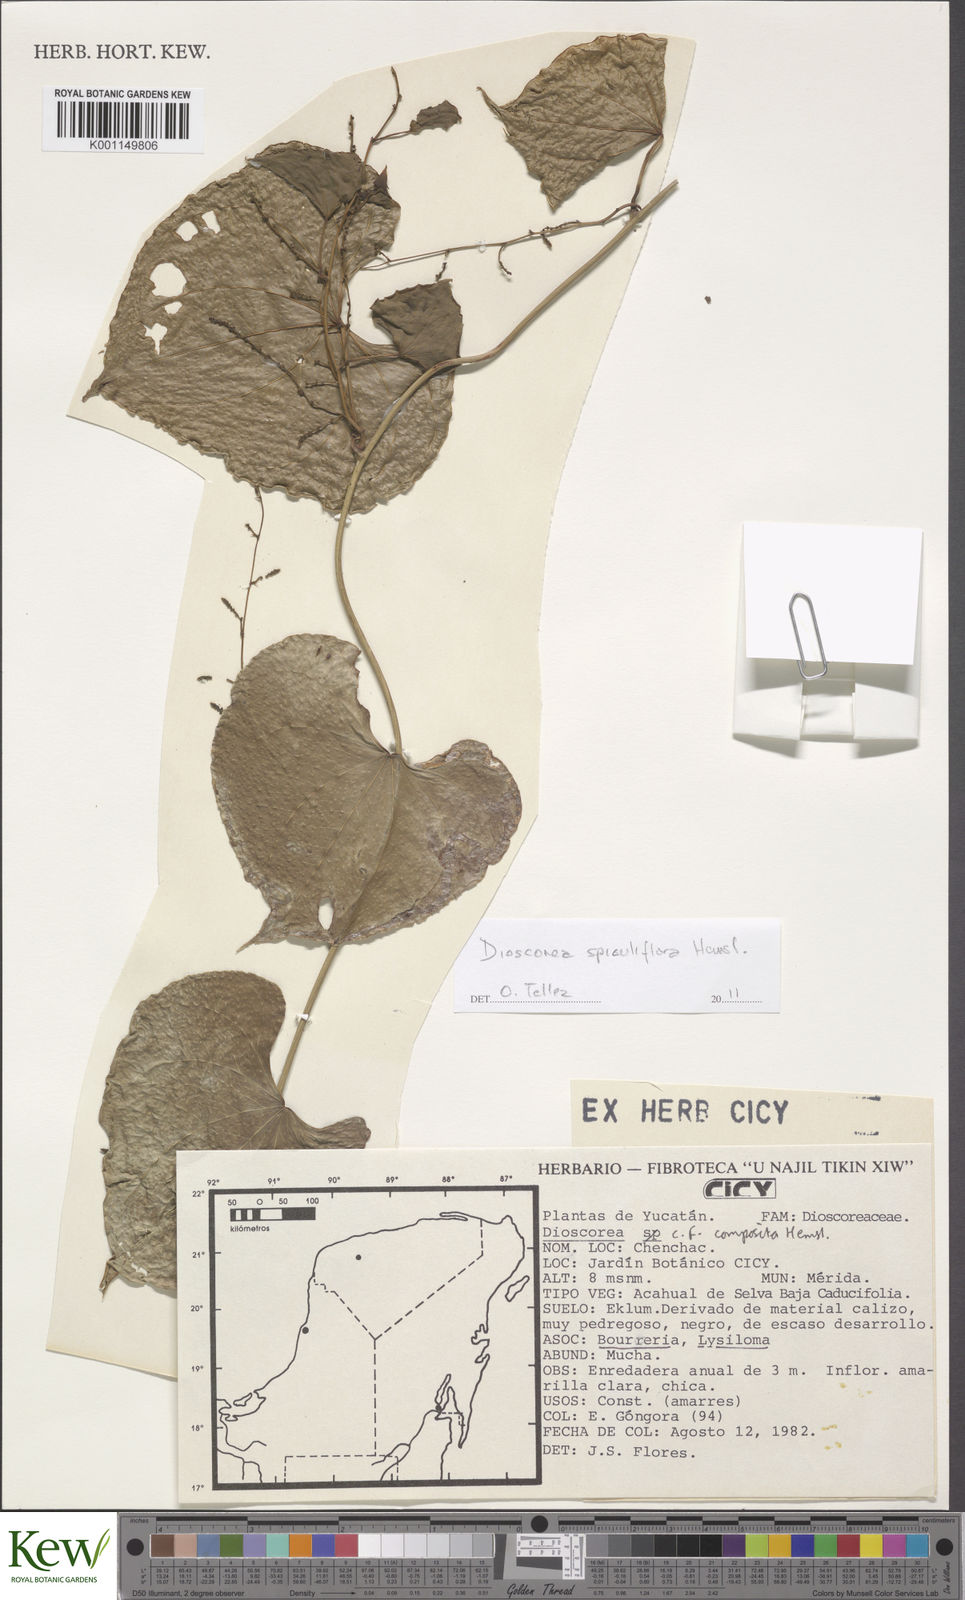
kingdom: Plantae
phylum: Tracheophyta
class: Liliopsida
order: Dioscoreales
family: Dioscoreaceae
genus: Dioscorea
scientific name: Dioscorea composita
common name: Barbasco
